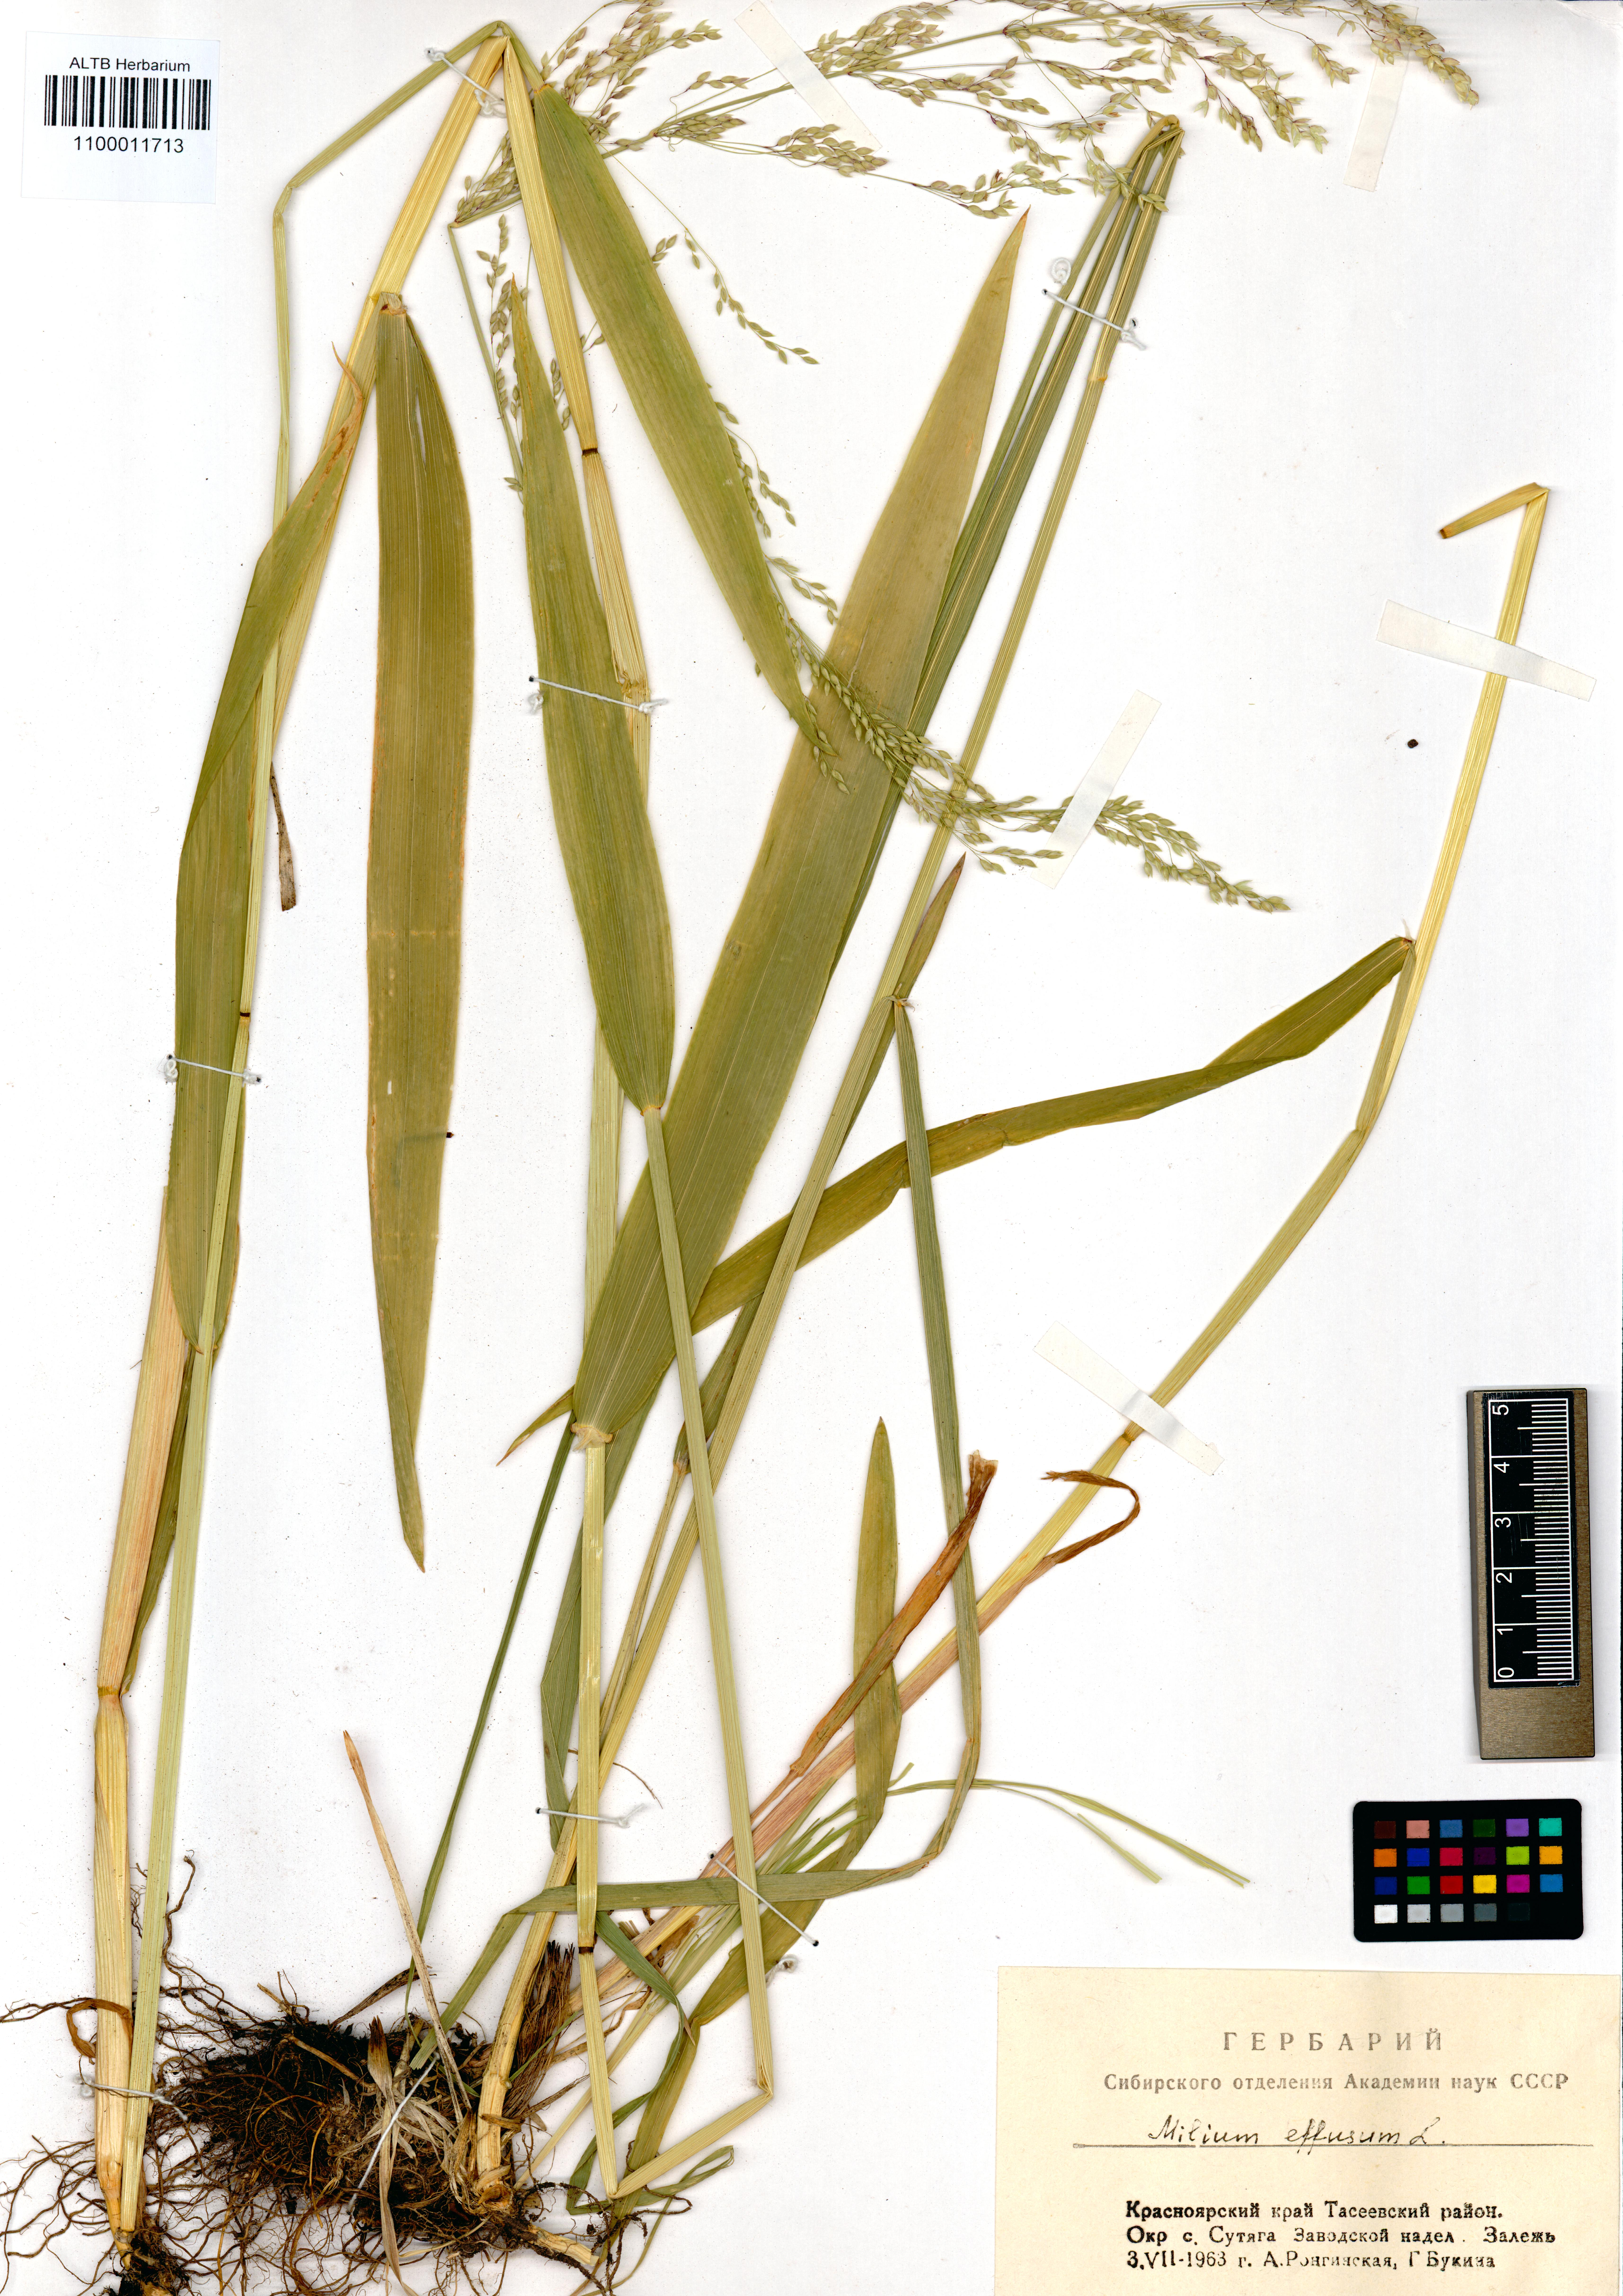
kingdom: Plantae
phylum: Tracheophyta
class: Liliopsida
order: Poales
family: Poaceae
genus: Milium
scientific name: Milium effusum
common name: Wood millet
